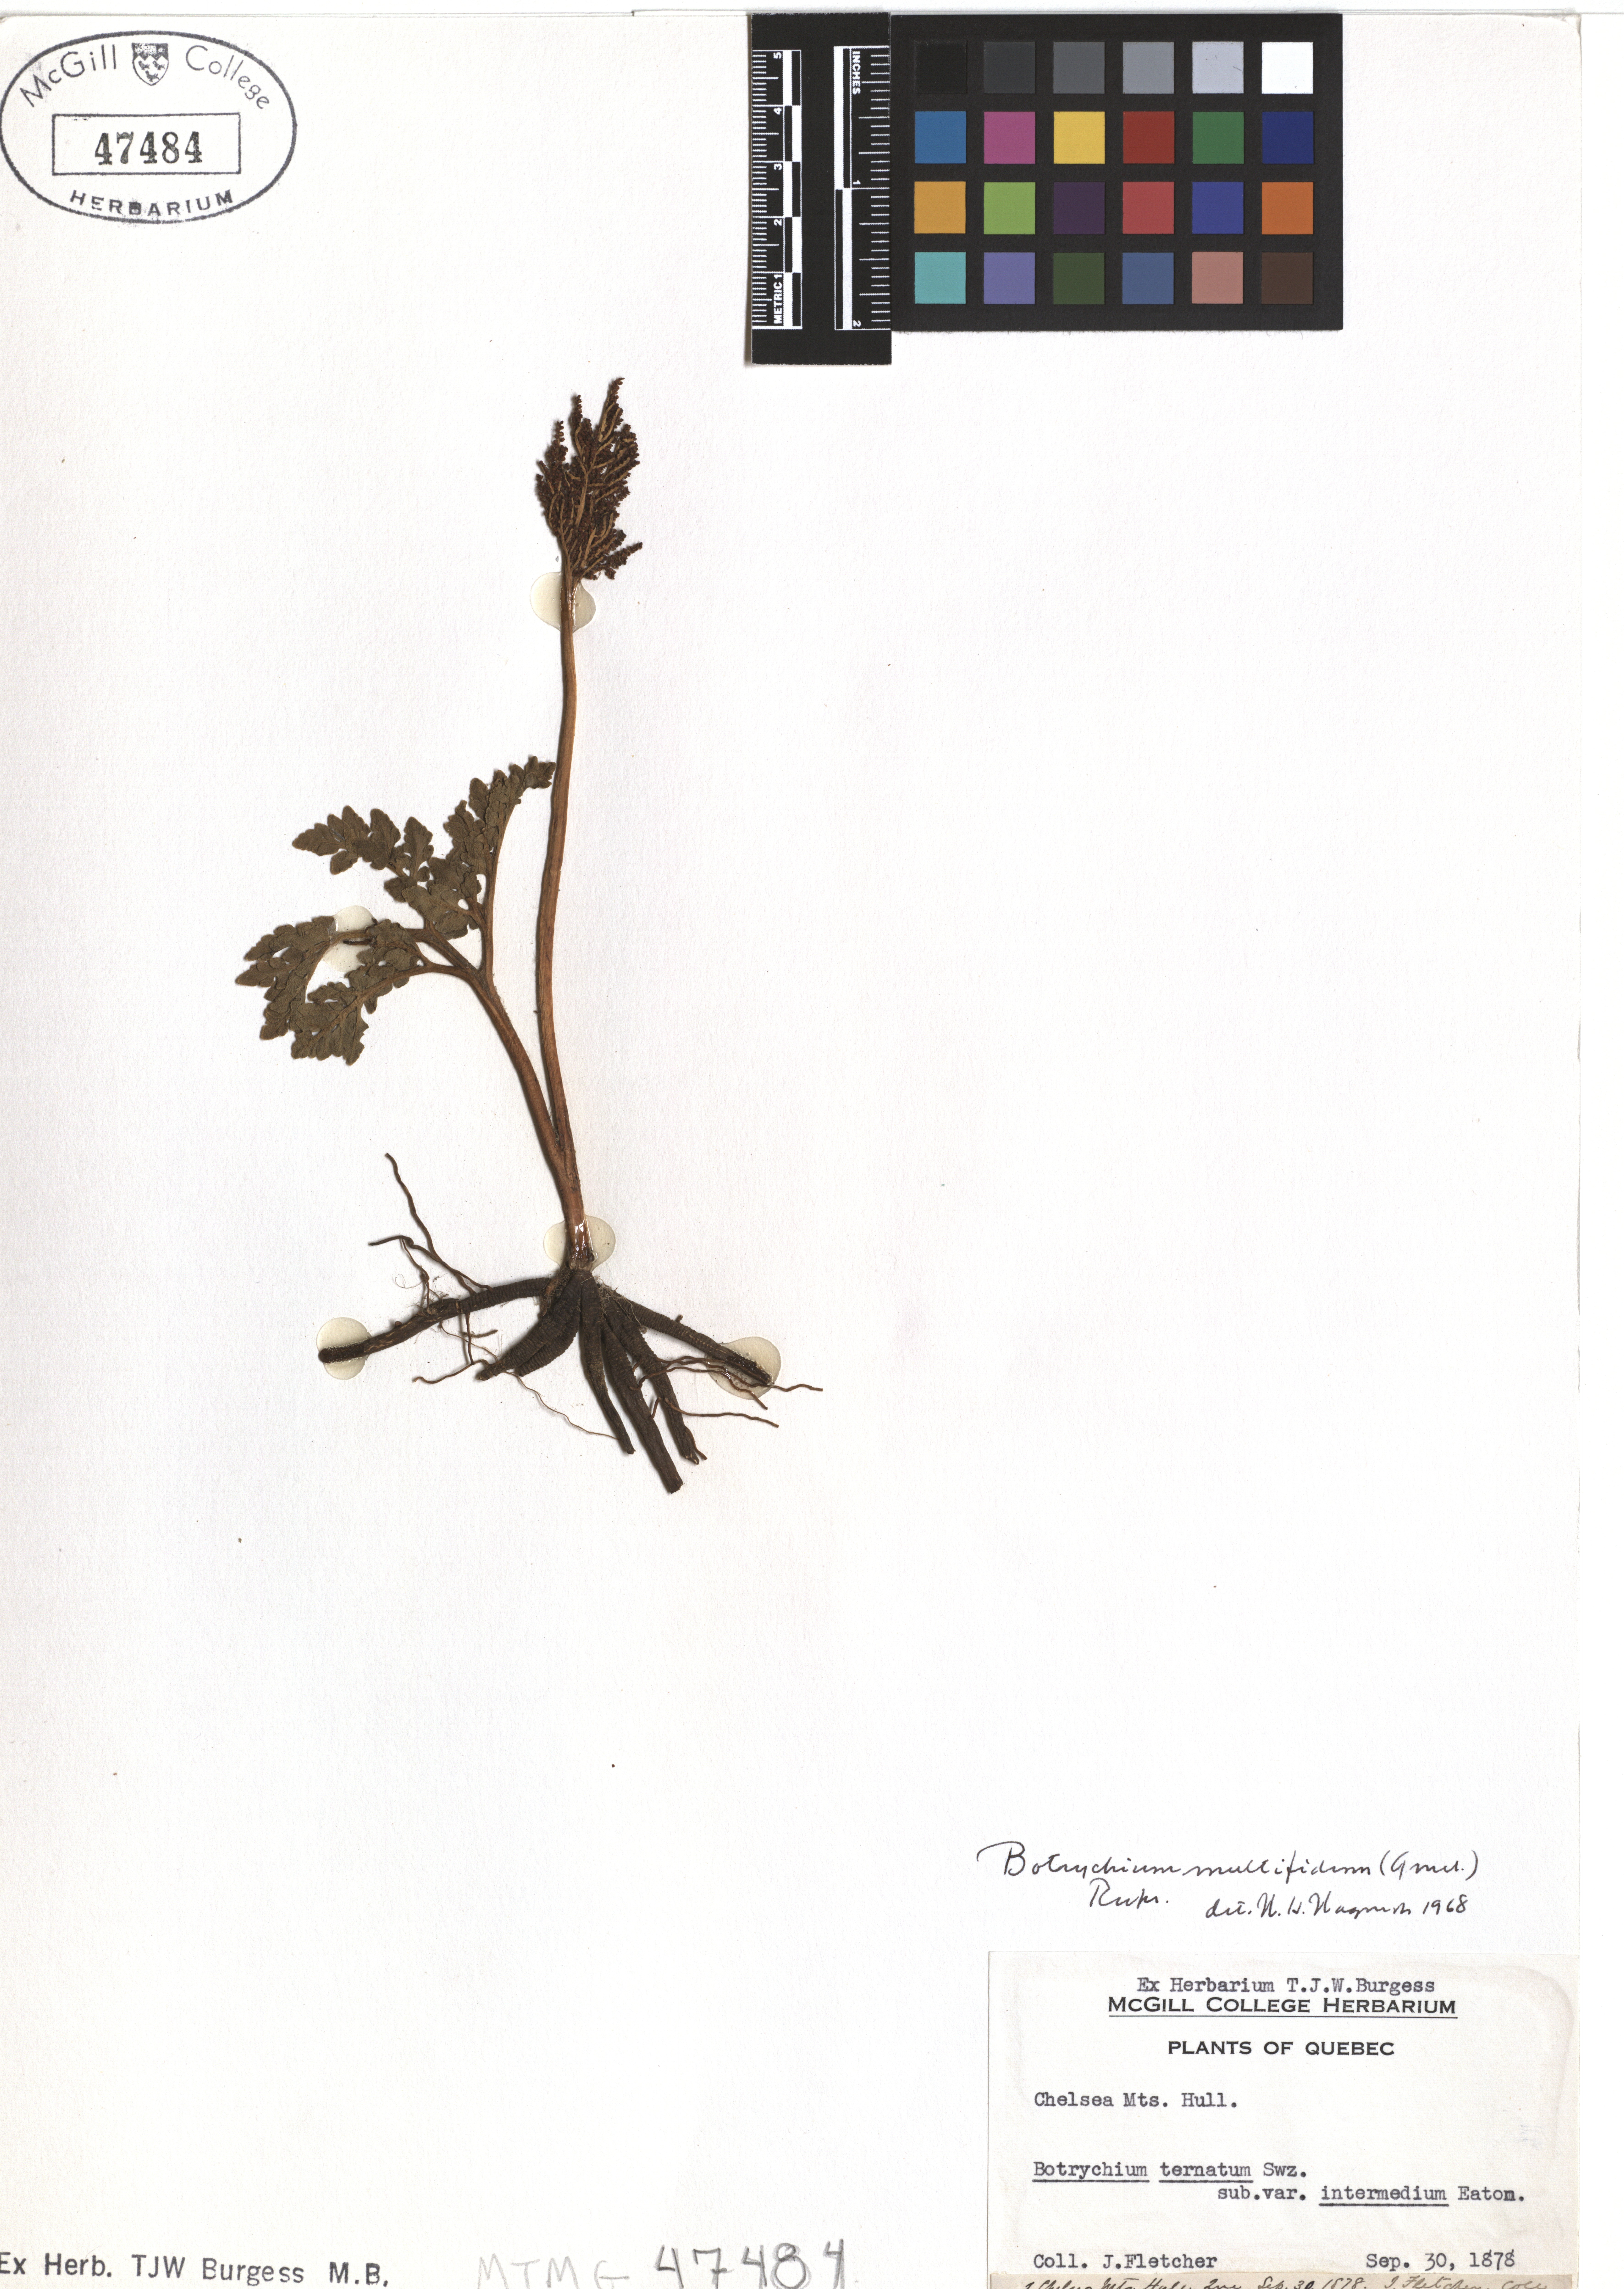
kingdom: Plantae
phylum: Tracheophyta
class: Polypodiopsida
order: Ophioglossales
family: Ophioglossaceae
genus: Sceptridium
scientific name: Sceptridium multifidum
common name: Leathery grape fern
